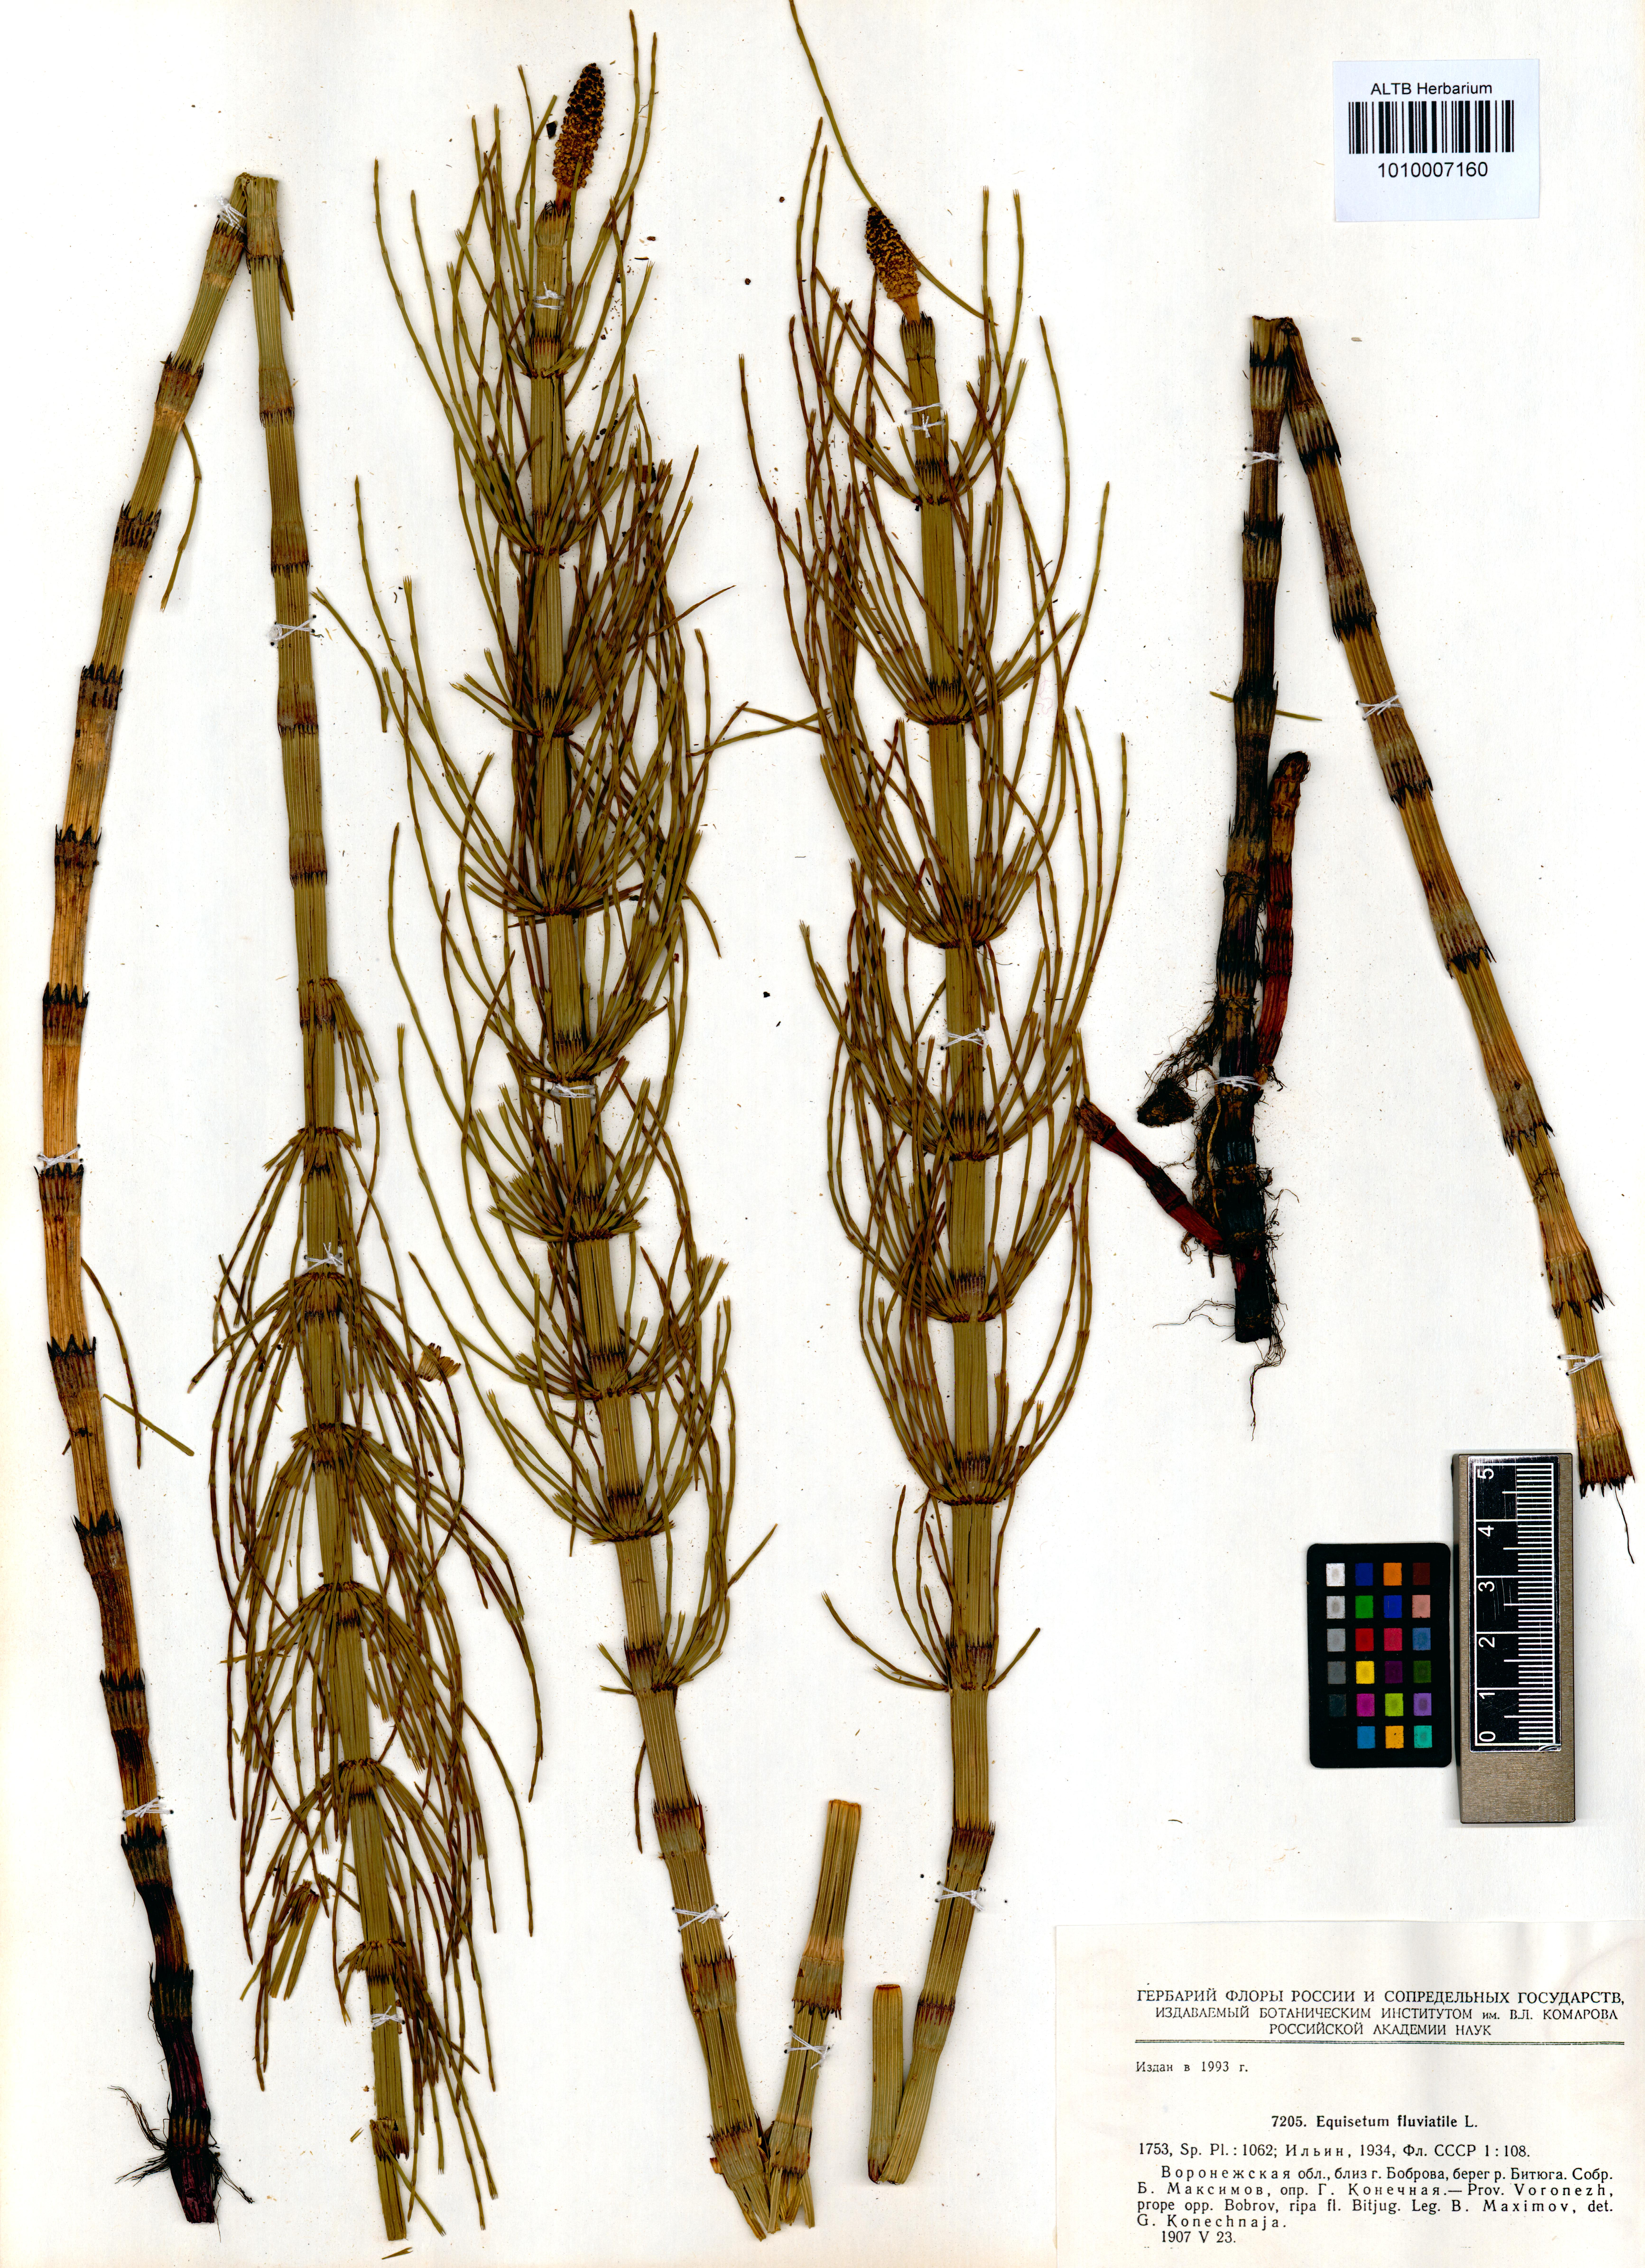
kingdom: Plantae
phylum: Tracheophyta
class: Polypodiopsida
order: Equisetales
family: Equisetaceae
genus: Equisetum
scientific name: Equisetum fluviatile
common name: Water horsetail
